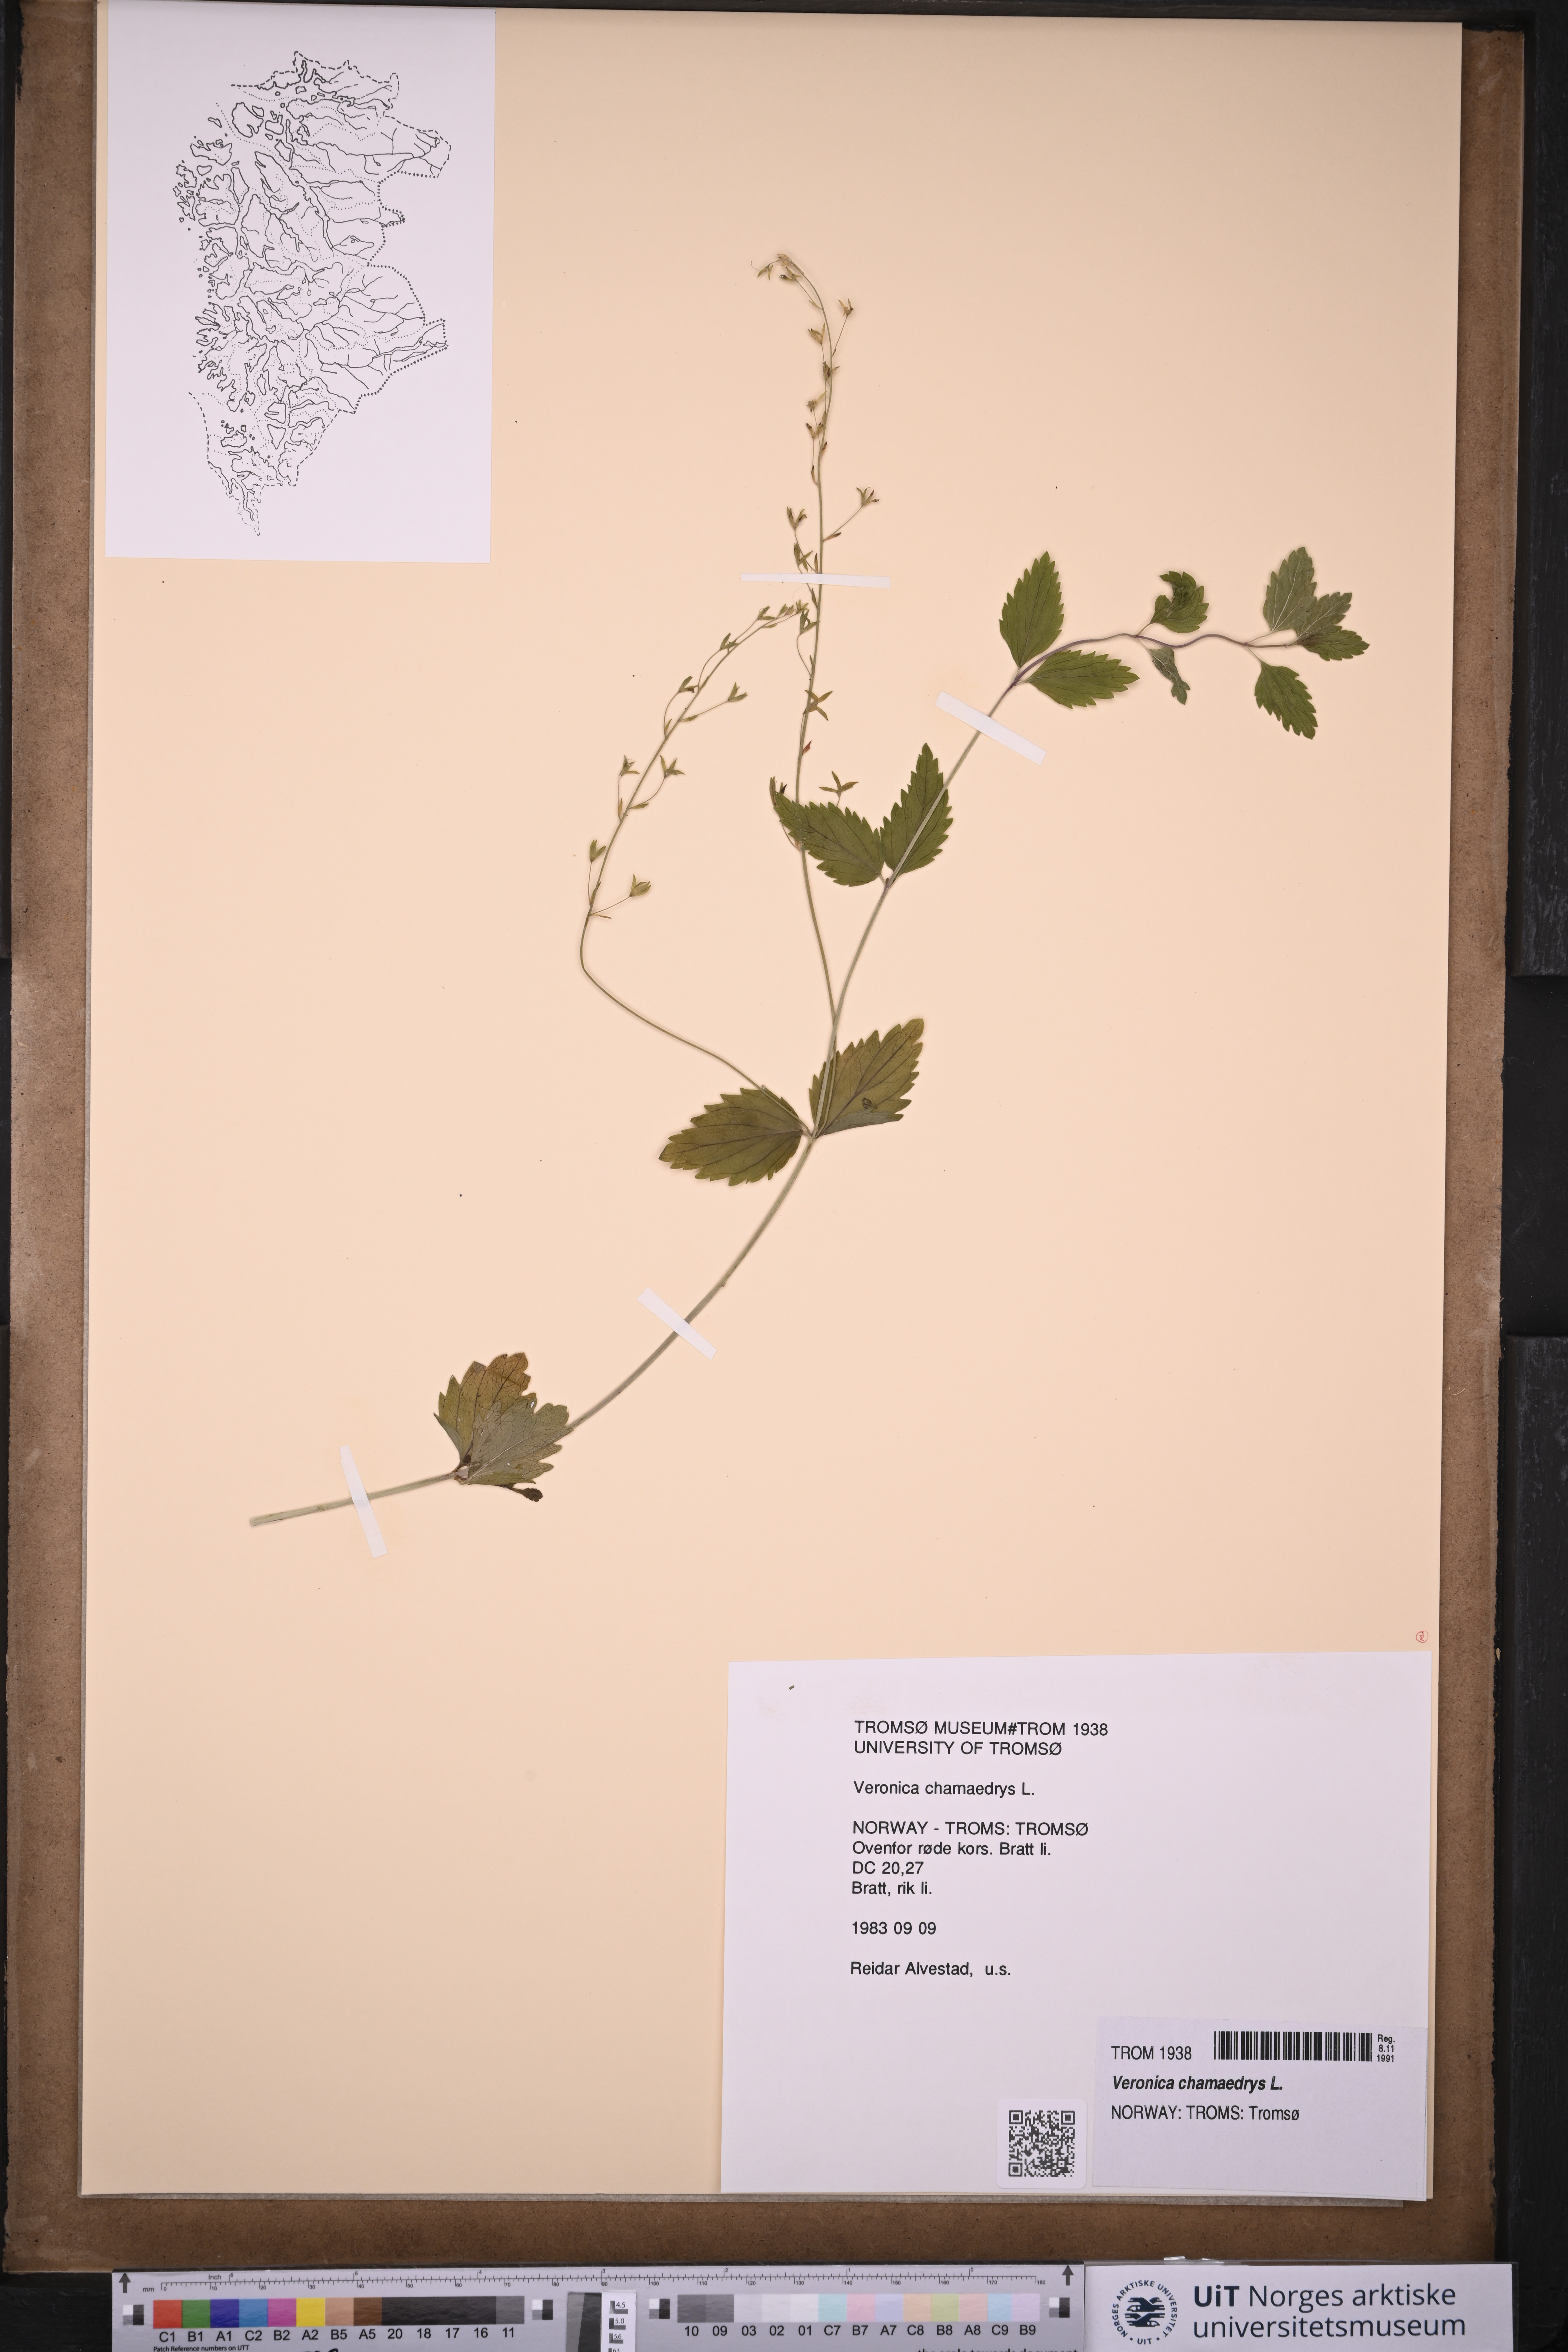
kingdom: Plantae
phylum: Tracheophyta
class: Magnoliopsida
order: Lamiales
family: Plantaginaceae
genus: Veronica
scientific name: Veronica chamaedrys
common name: Germander speedwell
